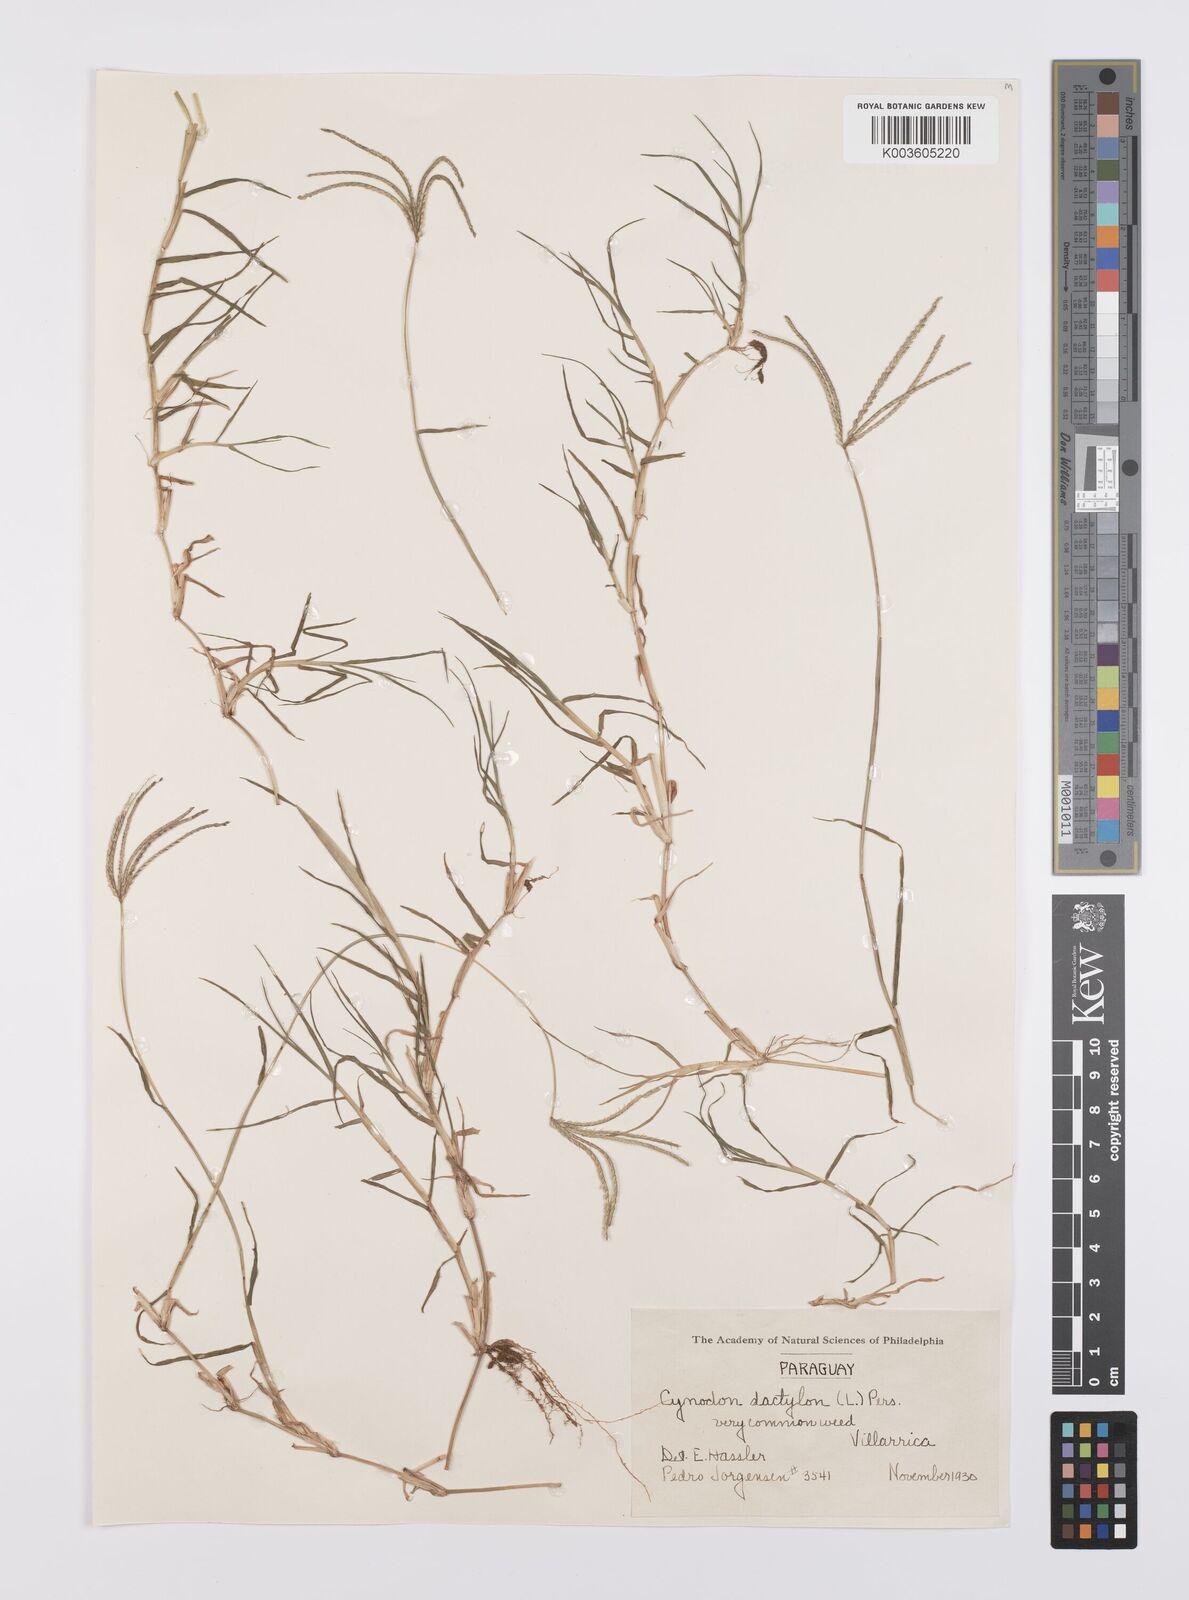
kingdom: Plantae
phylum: Tracheophyta
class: Liliopsida
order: Poales
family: Poaceae
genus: Cynodon
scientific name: Cynodon dactylon
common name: Bermuda grass
